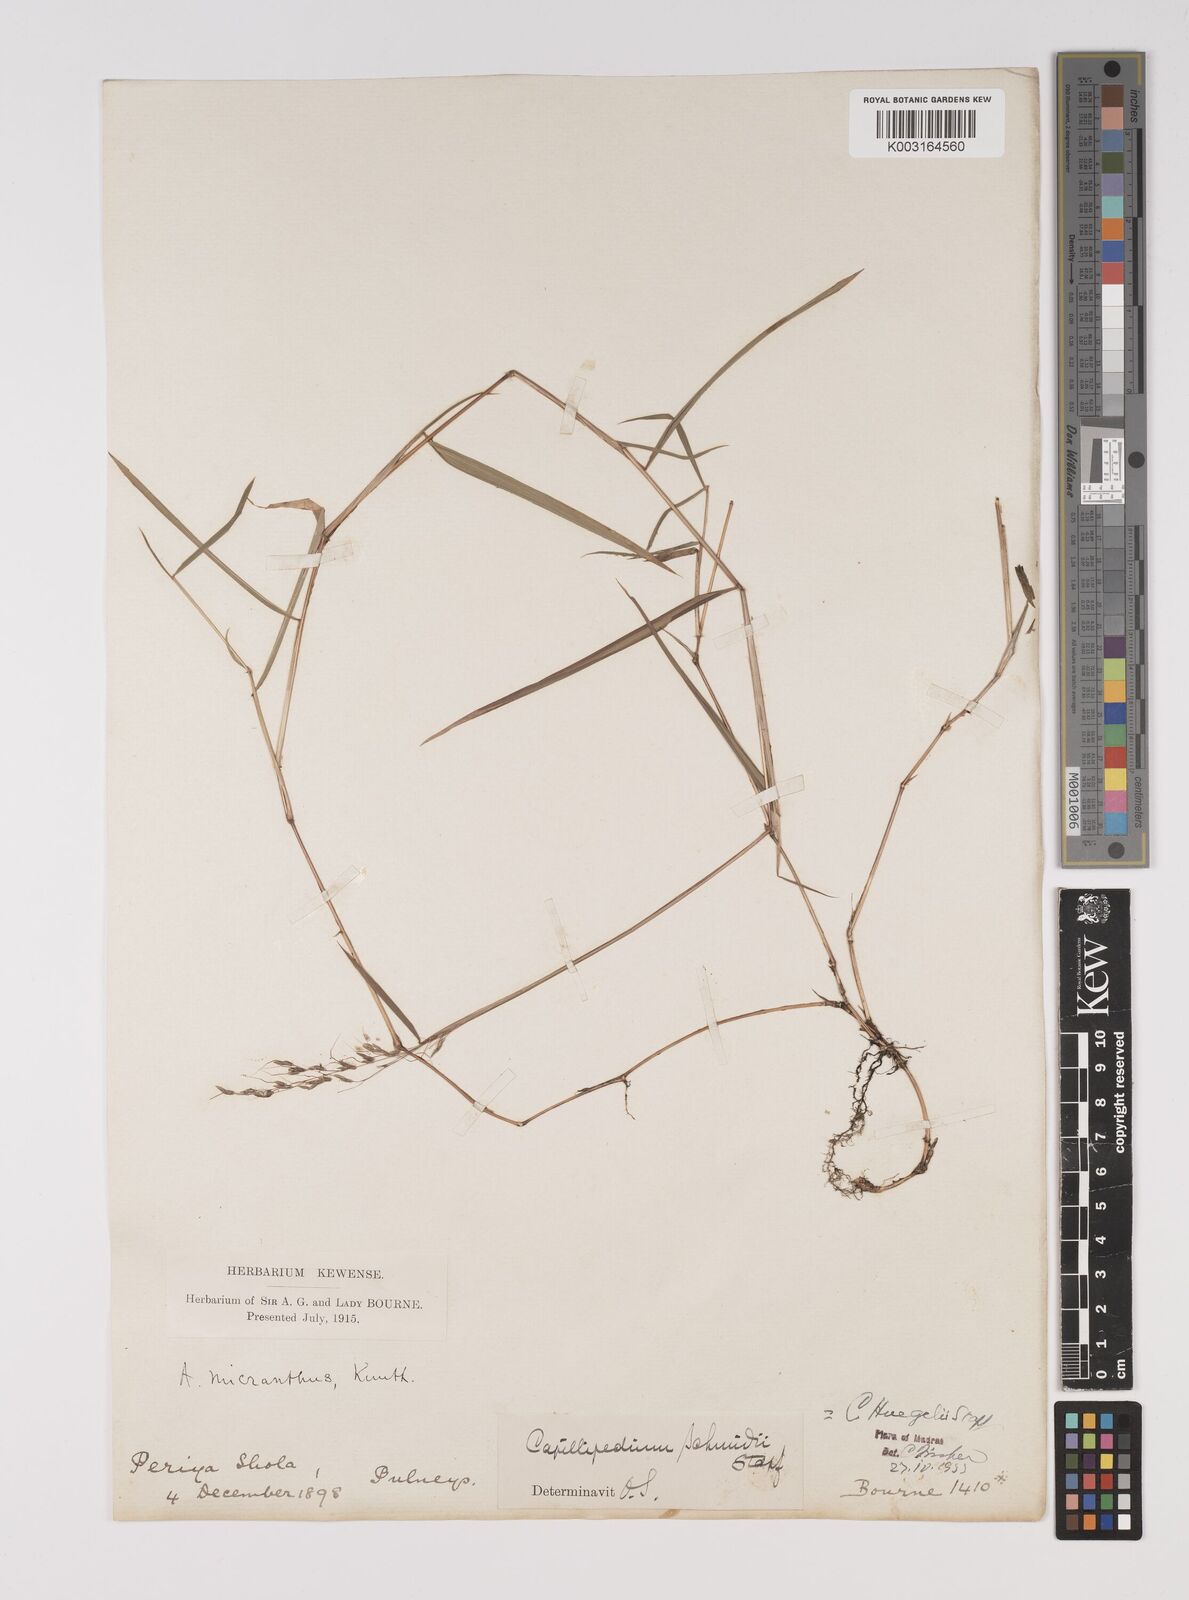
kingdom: Plantae
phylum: Tracheophyta
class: Liliopsida
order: Poales
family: Poaceae
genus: Capillipedium
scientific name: Capillipedium huegelii
